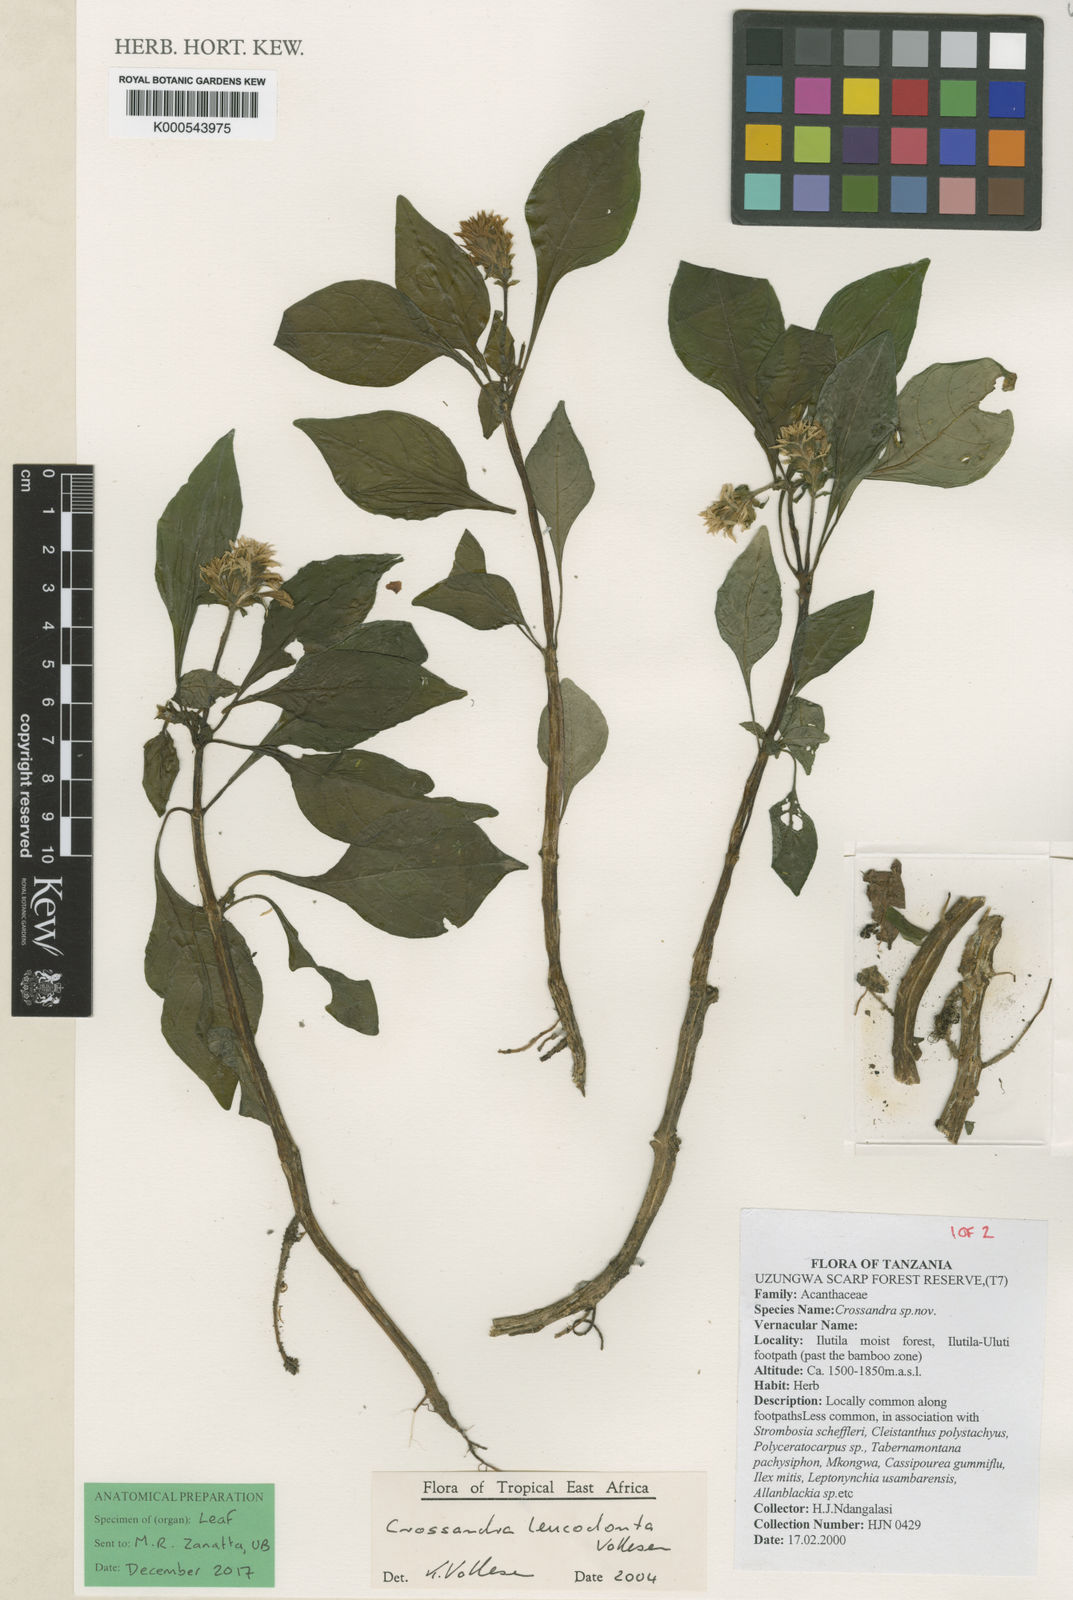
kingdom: Plantae
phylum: Tracheophyta
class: Magnoliopsida
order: Lamiales
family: Acanthaceae
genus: Crossandra
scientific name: Crossandra leucodonta
